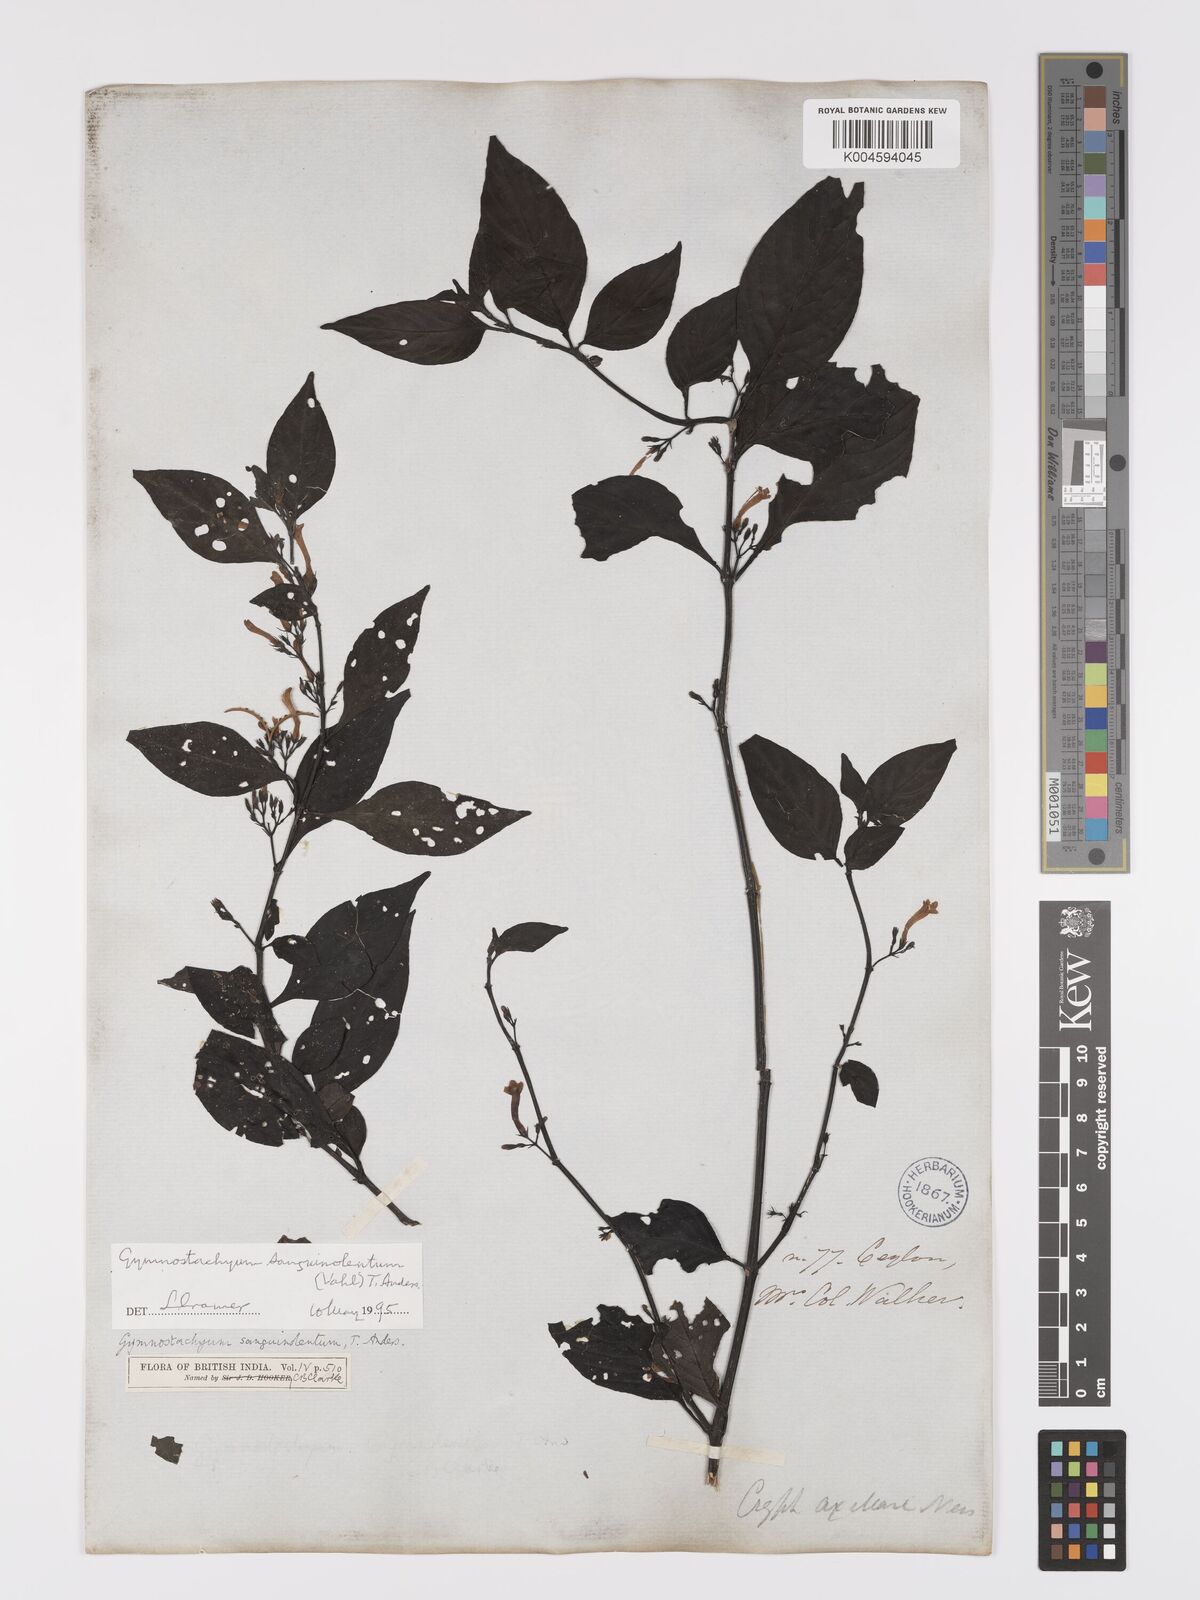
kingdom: Plantae
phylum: Tracheophyta
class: Magnoliopsida
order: Lamiales
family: Acanthaceae
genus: Gymnostachyum
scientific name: Gymnostachyum sanguinolentum
